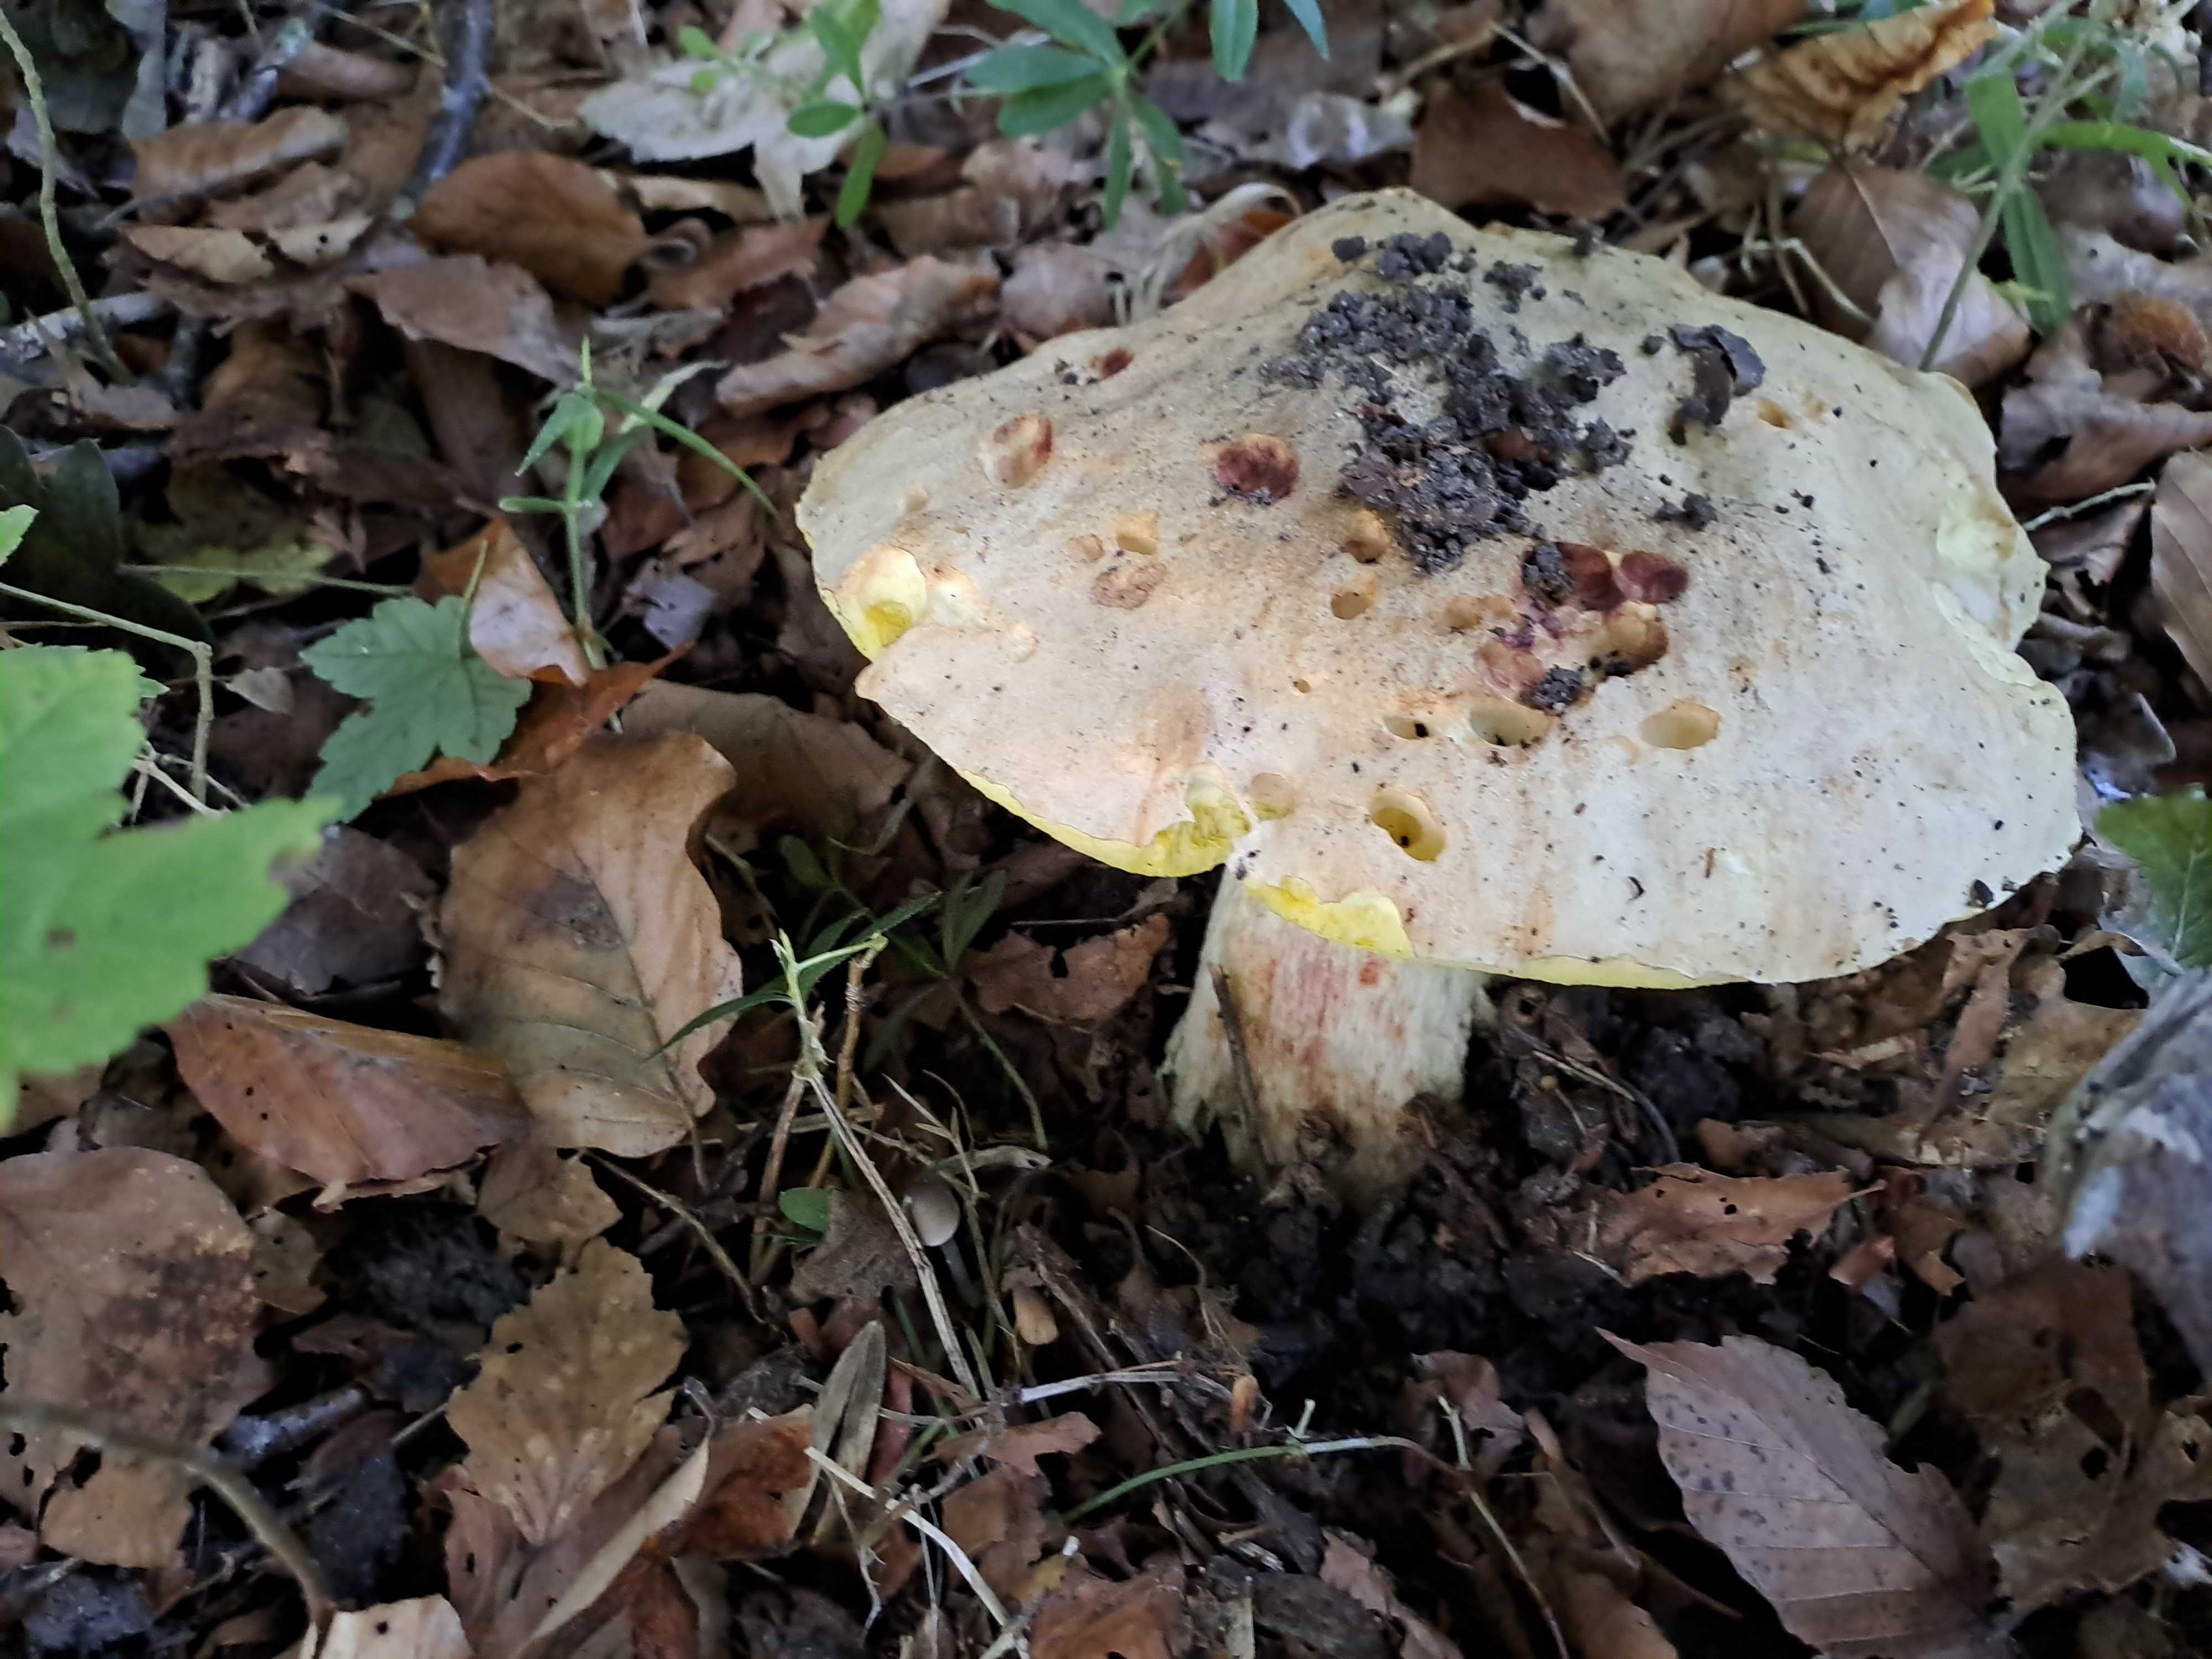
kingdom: Fungi
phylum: Basidiomycota
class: Agaricomycetes
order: Boletales
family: Boletaceae
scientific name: Boletaceae
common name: rørhatfamilien
